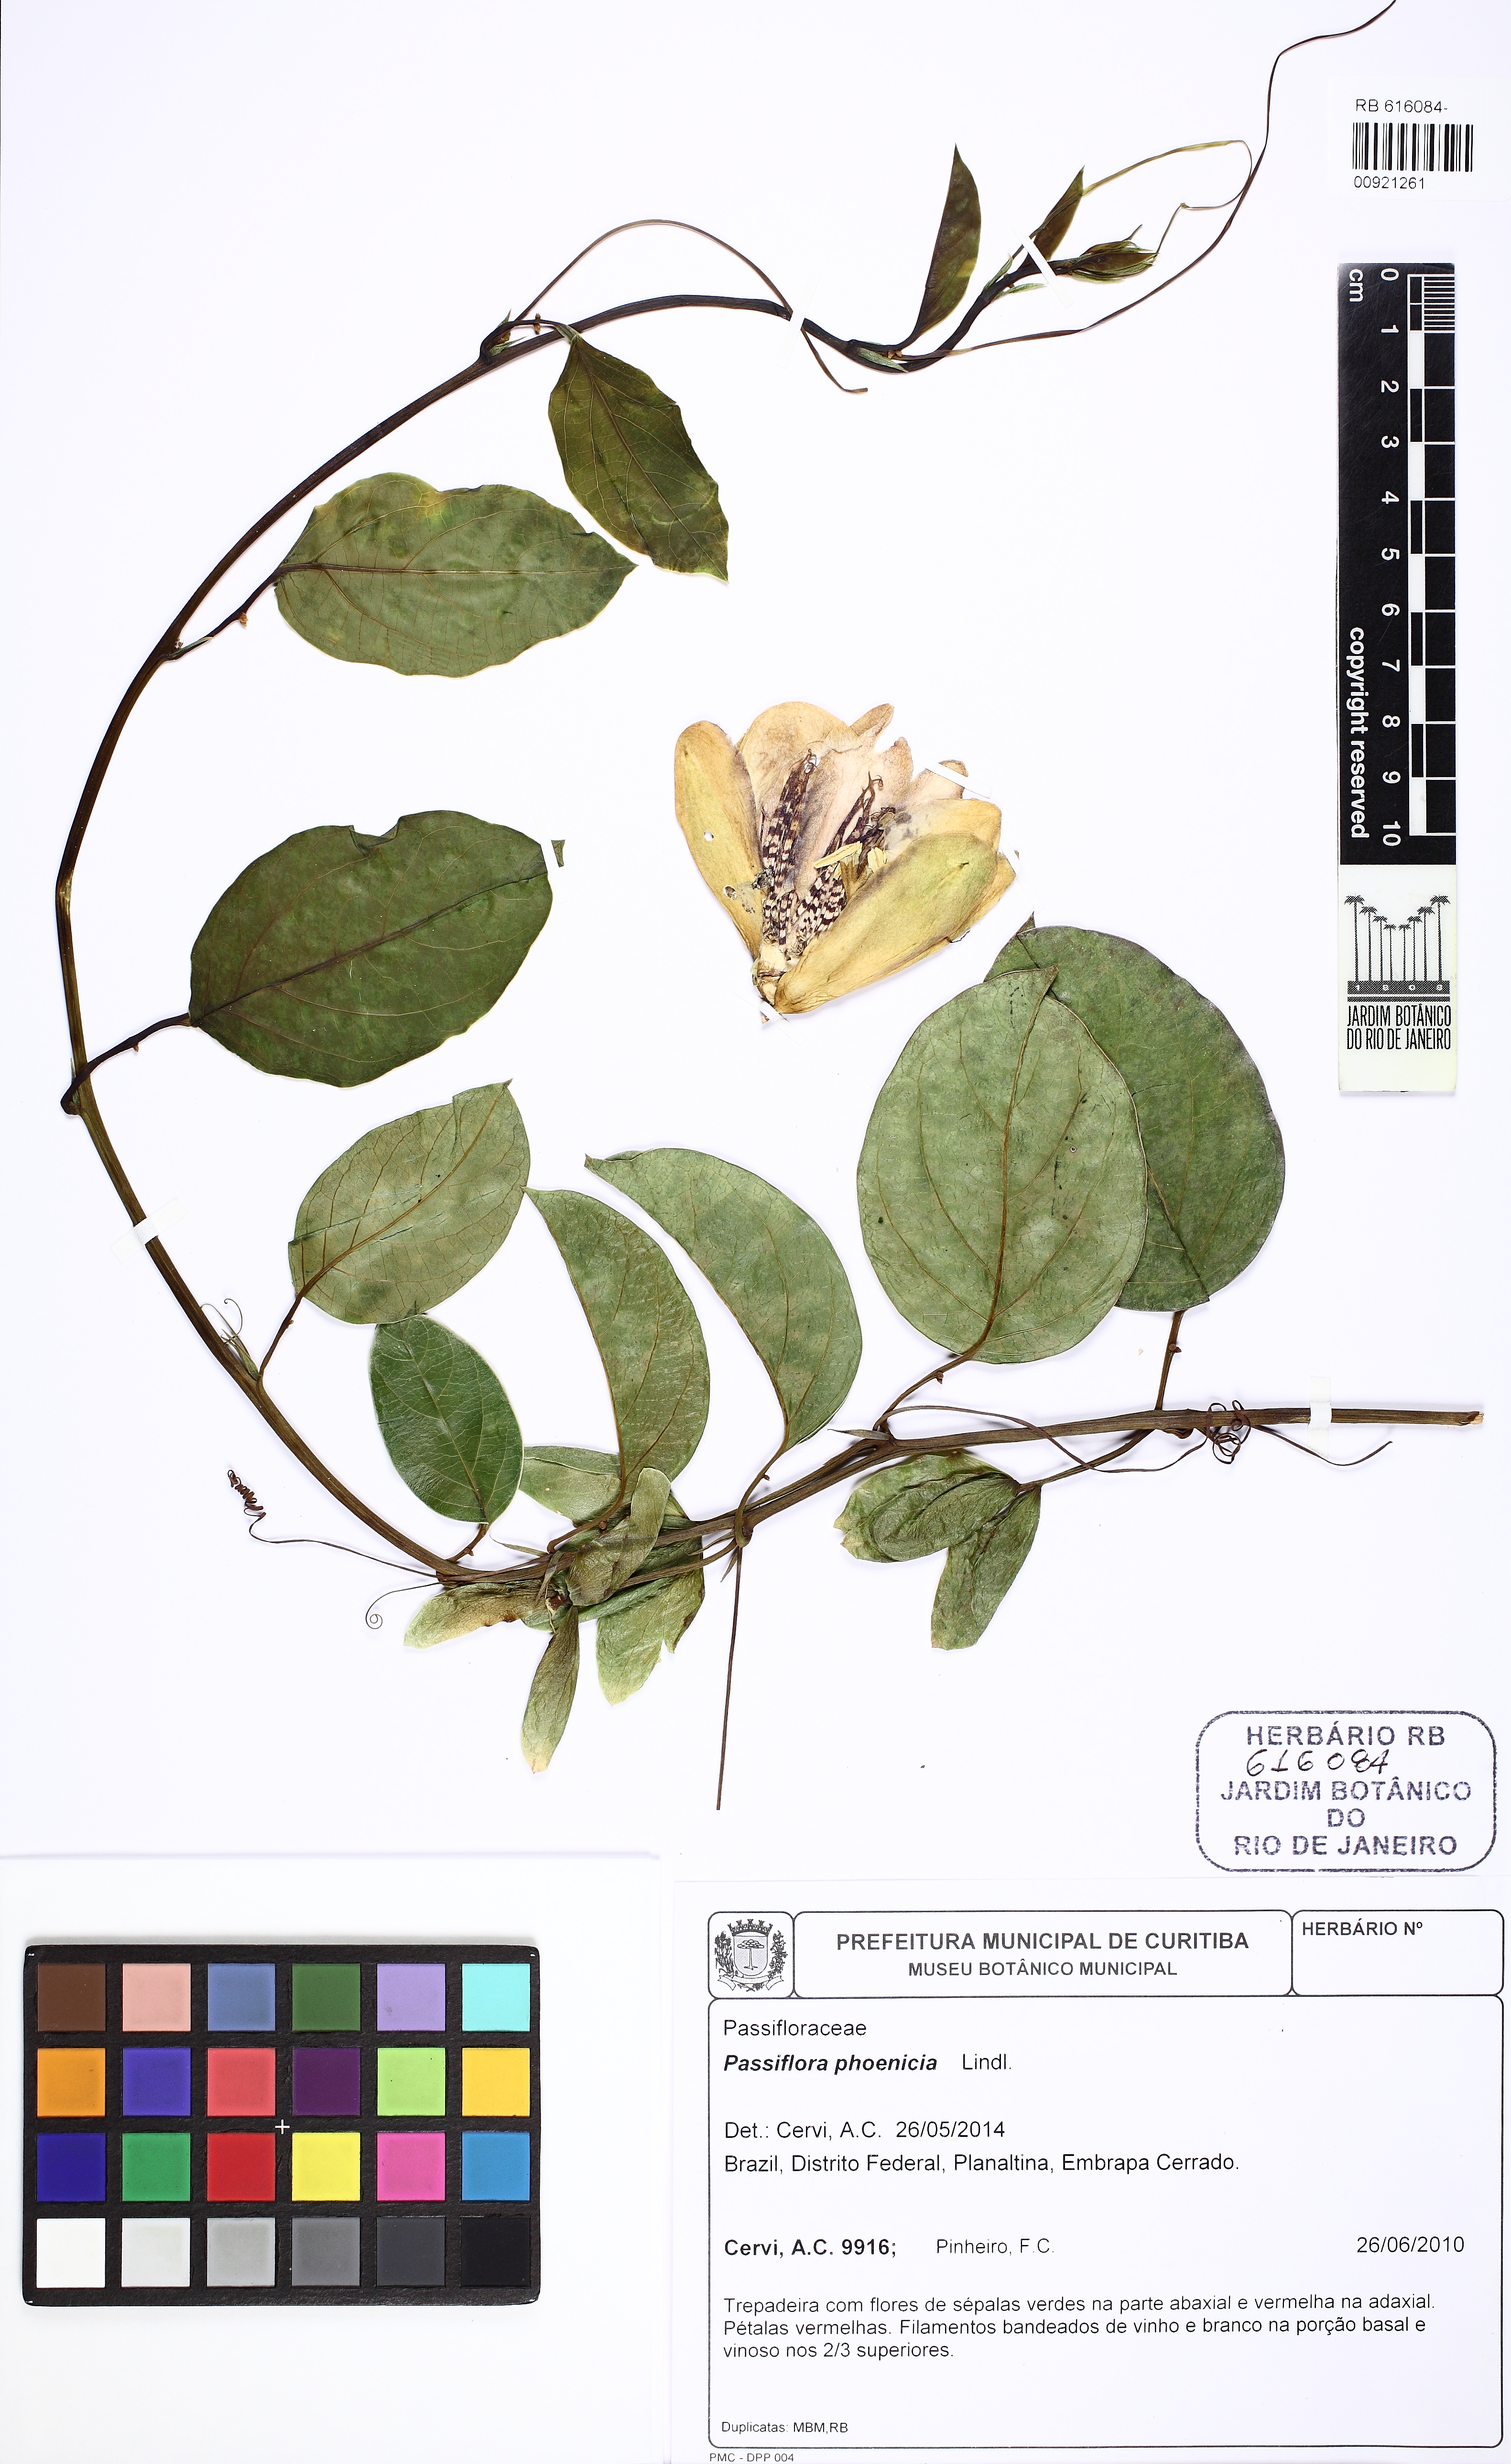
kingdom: Plantae
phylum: Tracheophyta
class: Magnoliopsida
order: Malpighiales
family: Passifloraceae
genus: Passiflora
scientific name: Passiflora alata
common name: Wing-stemmed passion flower
